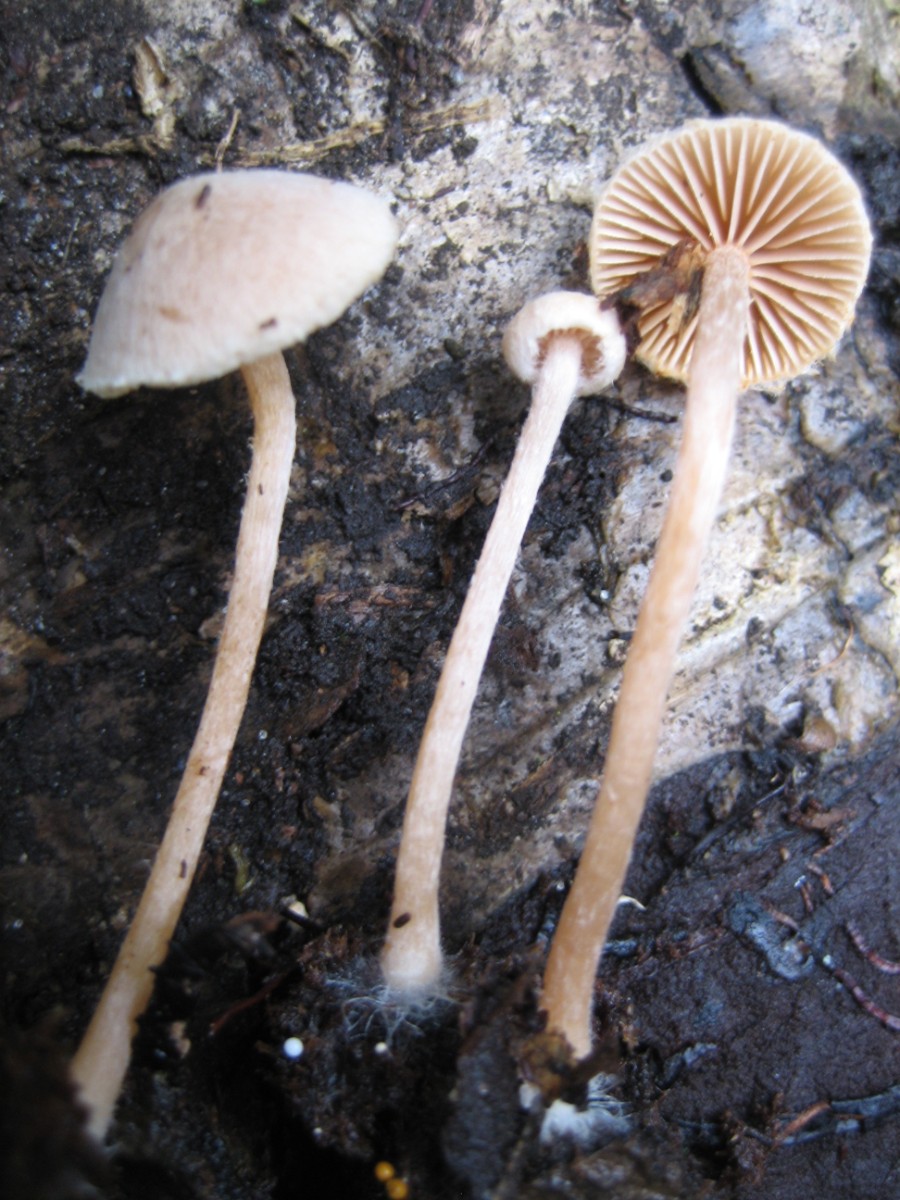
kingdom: Fungi
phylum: Basidiomycota
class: Agaricomycetes
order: Agaricales
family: Tubariaceae
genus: Tubaria
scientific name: Tubaria conspersa
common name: bleg fnughat
